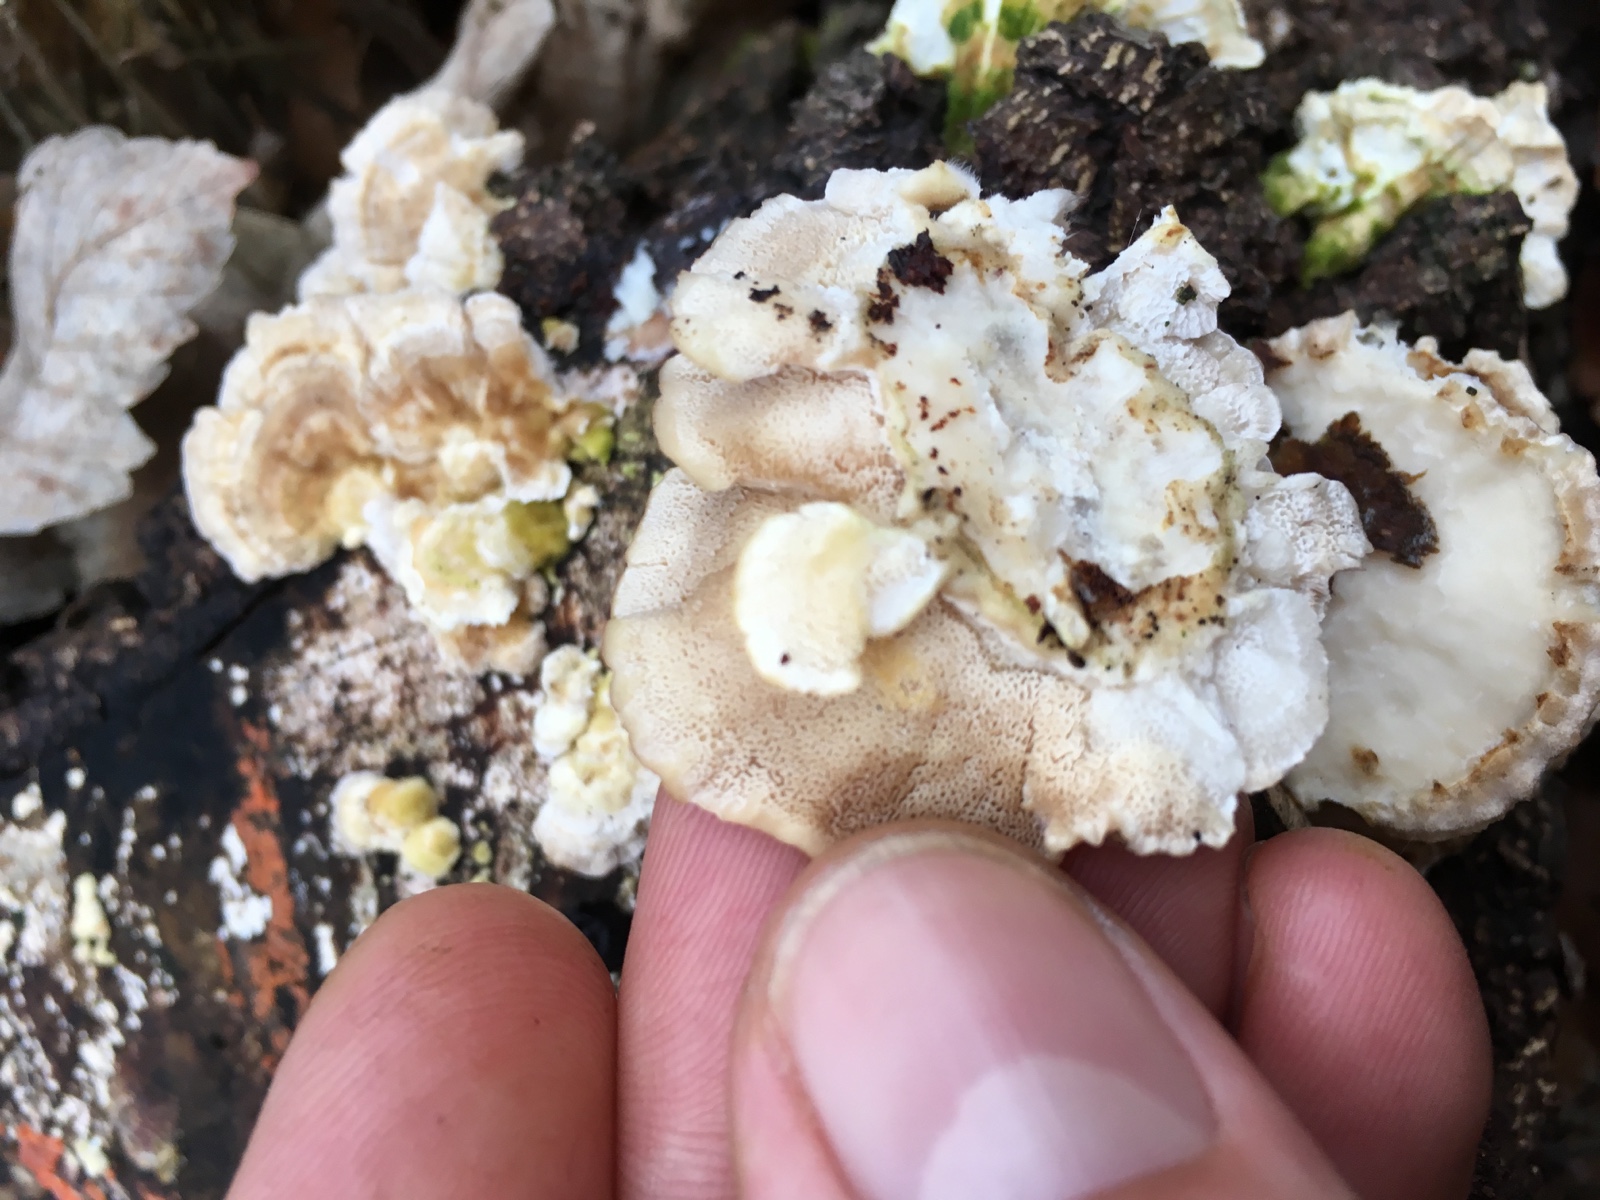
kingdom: Fungi
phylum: Basidiomycota
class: Agaricomycetes
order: Polyporales
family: Polyporaceae
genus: Trametes
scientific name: Trametes versicolor
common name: broget læderporesvamp
